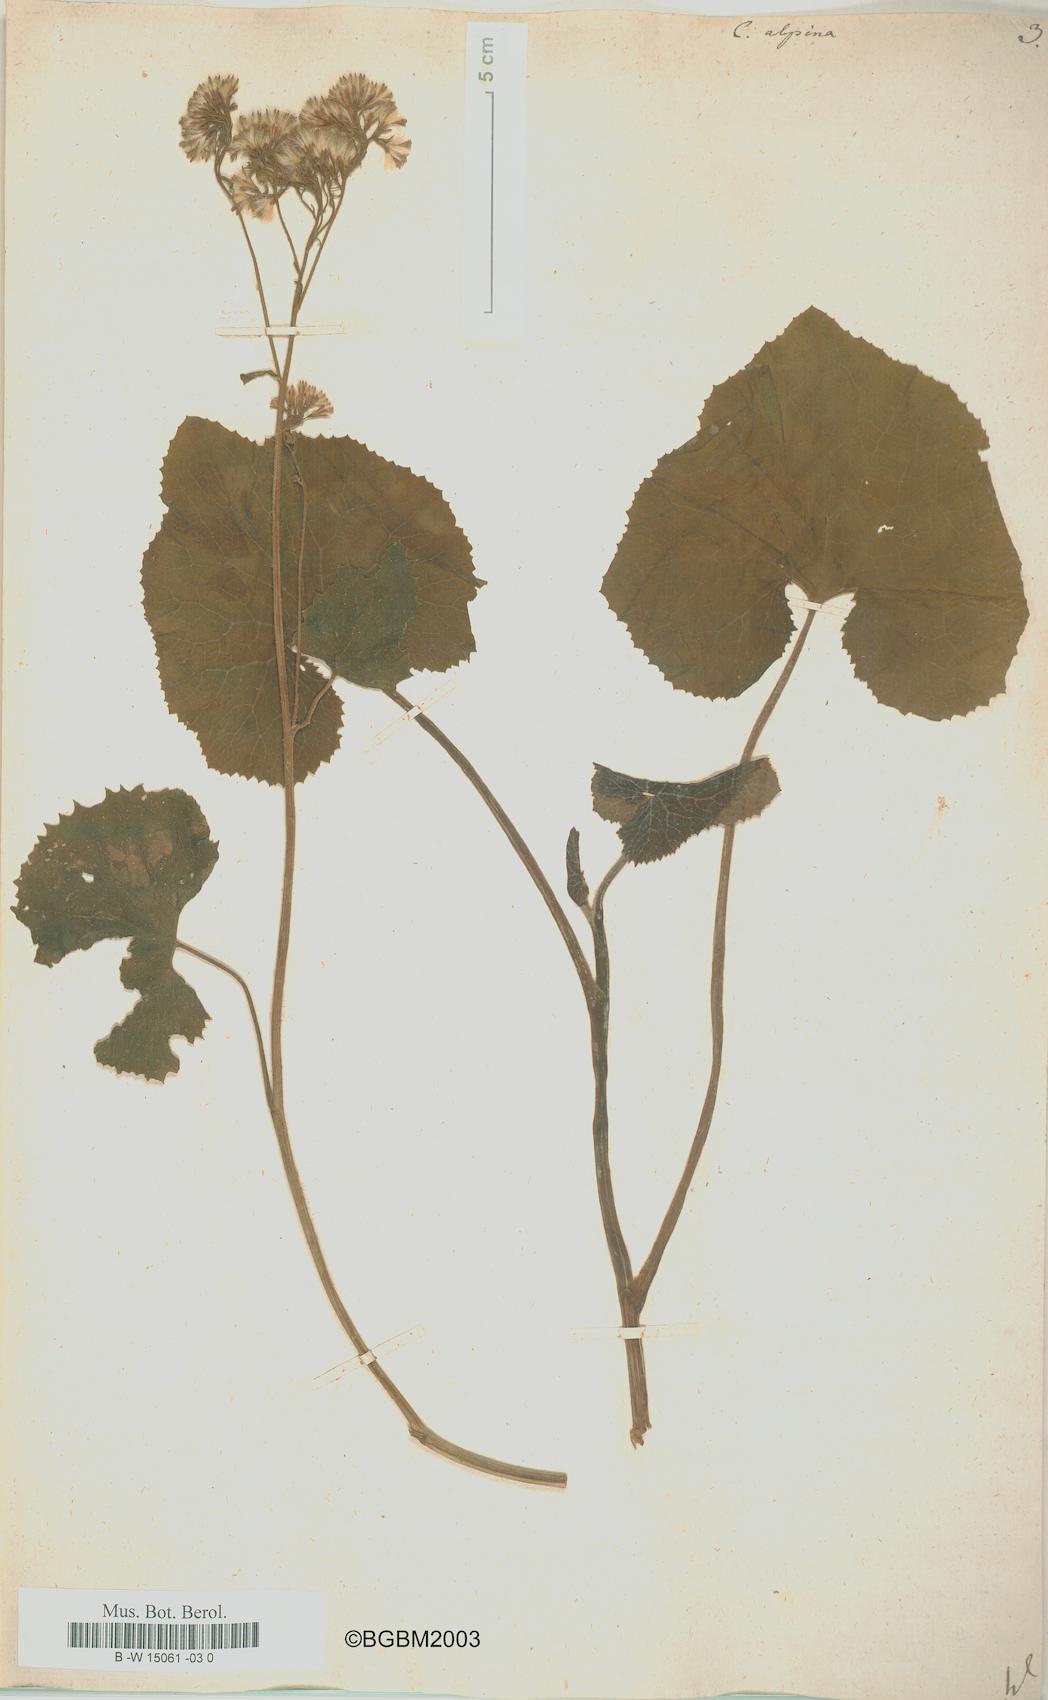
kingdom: Plantae
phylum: Tracheophyta
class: Magnoliopsida
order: Asterales
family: Asteraceae
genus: Adenostyles
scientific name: Adenostyles alpina
